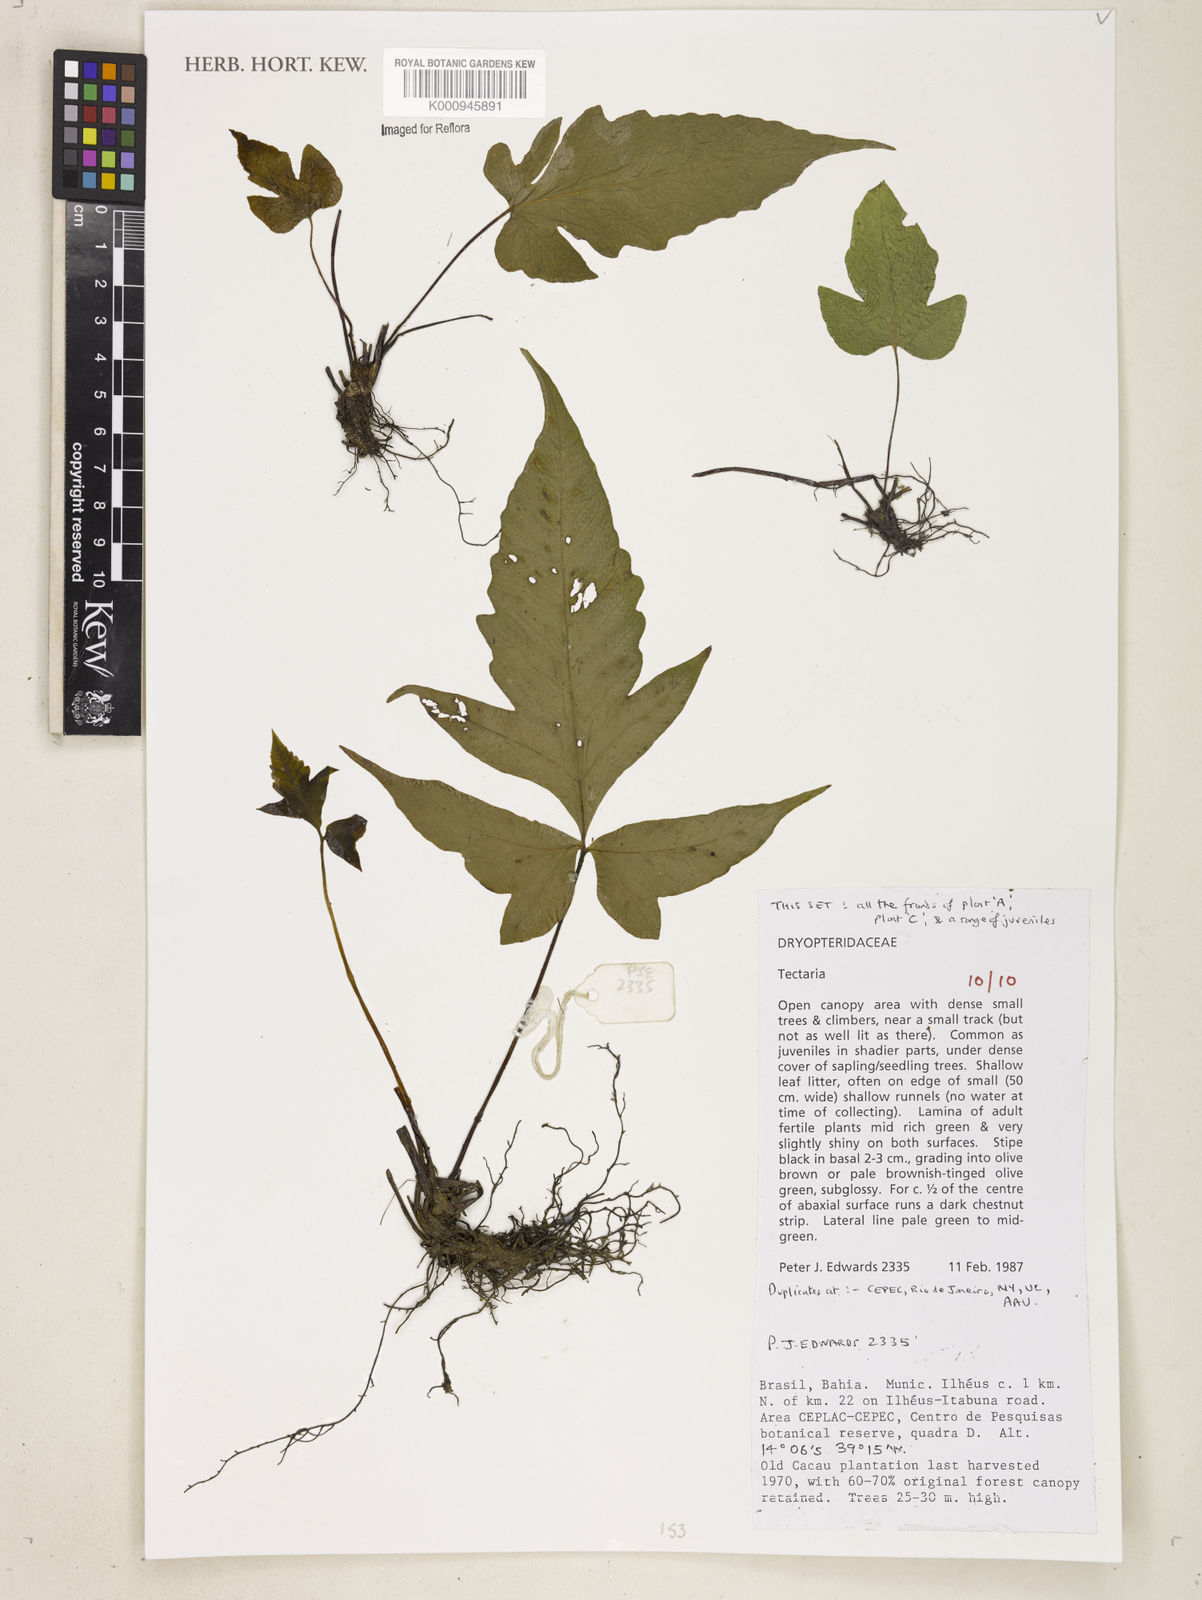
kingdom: Plantae
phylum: Tracheophyta
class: Polypodiopsida
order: Polypodiales
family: Tectariaceae
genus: Tectaria
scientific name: Tectaria
